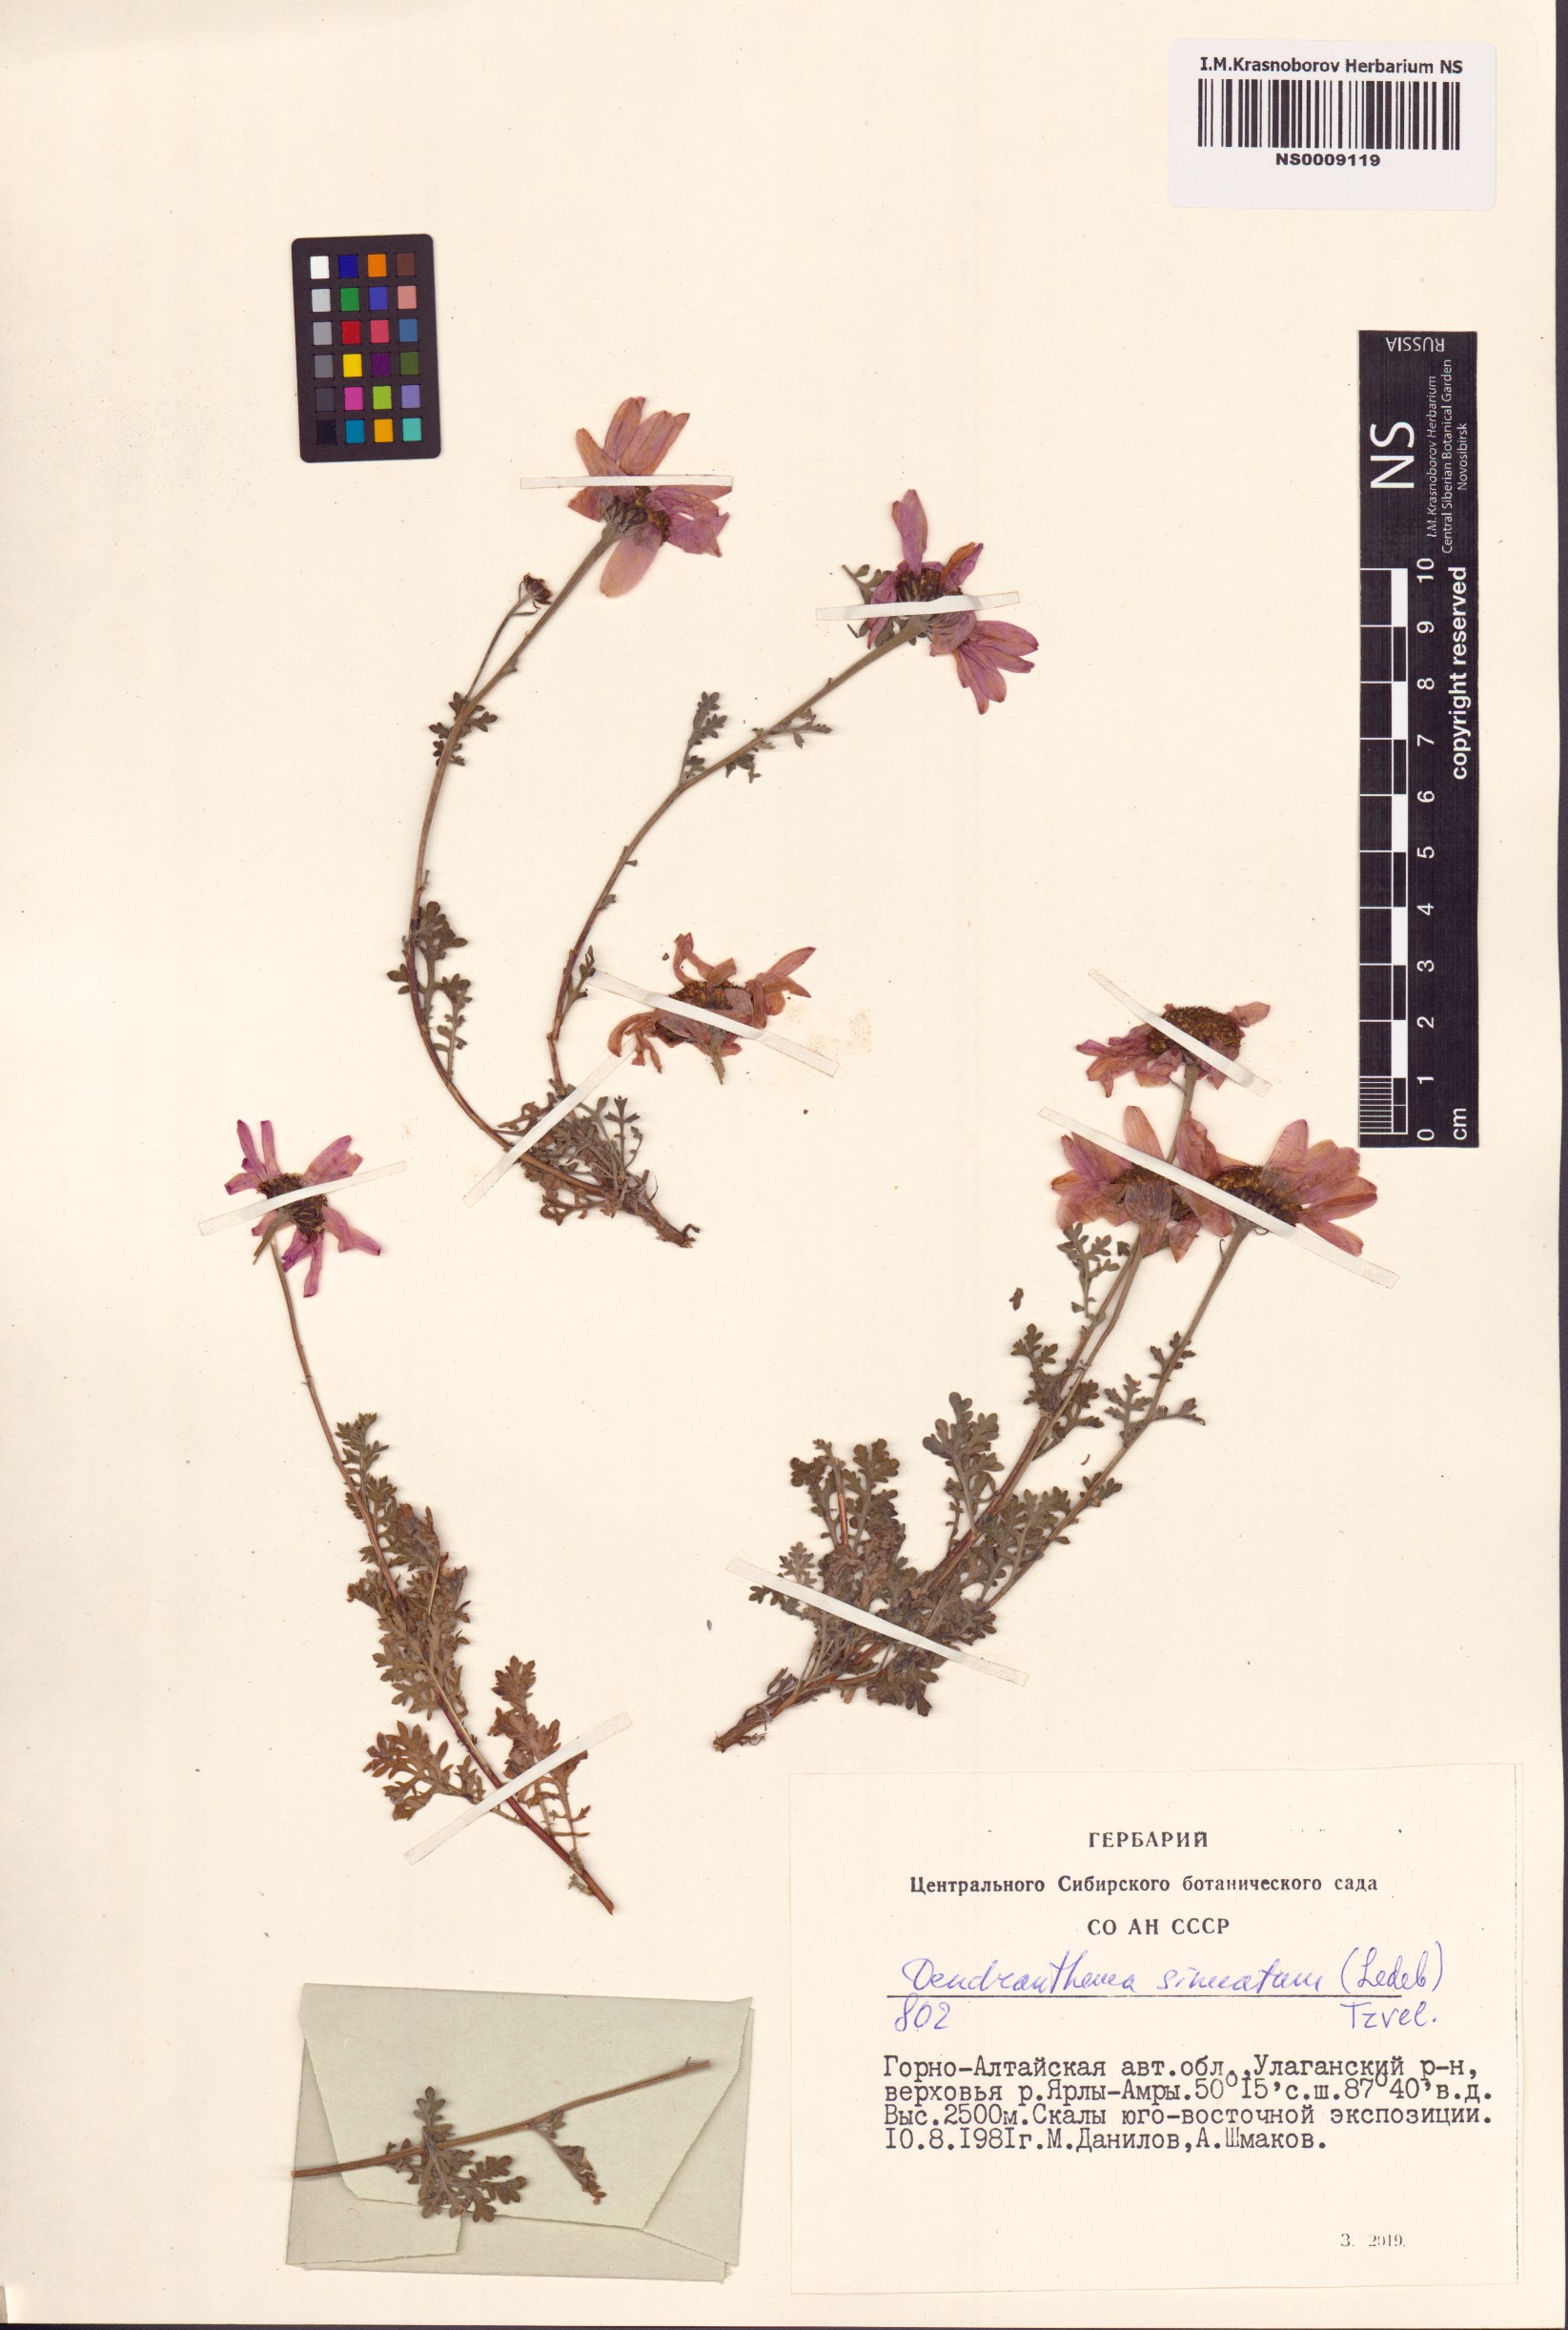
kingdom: Plantae
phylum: Tracheophyta
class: Magnoliopsida
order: Asterales
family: Asteraceae
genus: Chrysanthemum
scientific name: Chrysanthemum sinuatum
